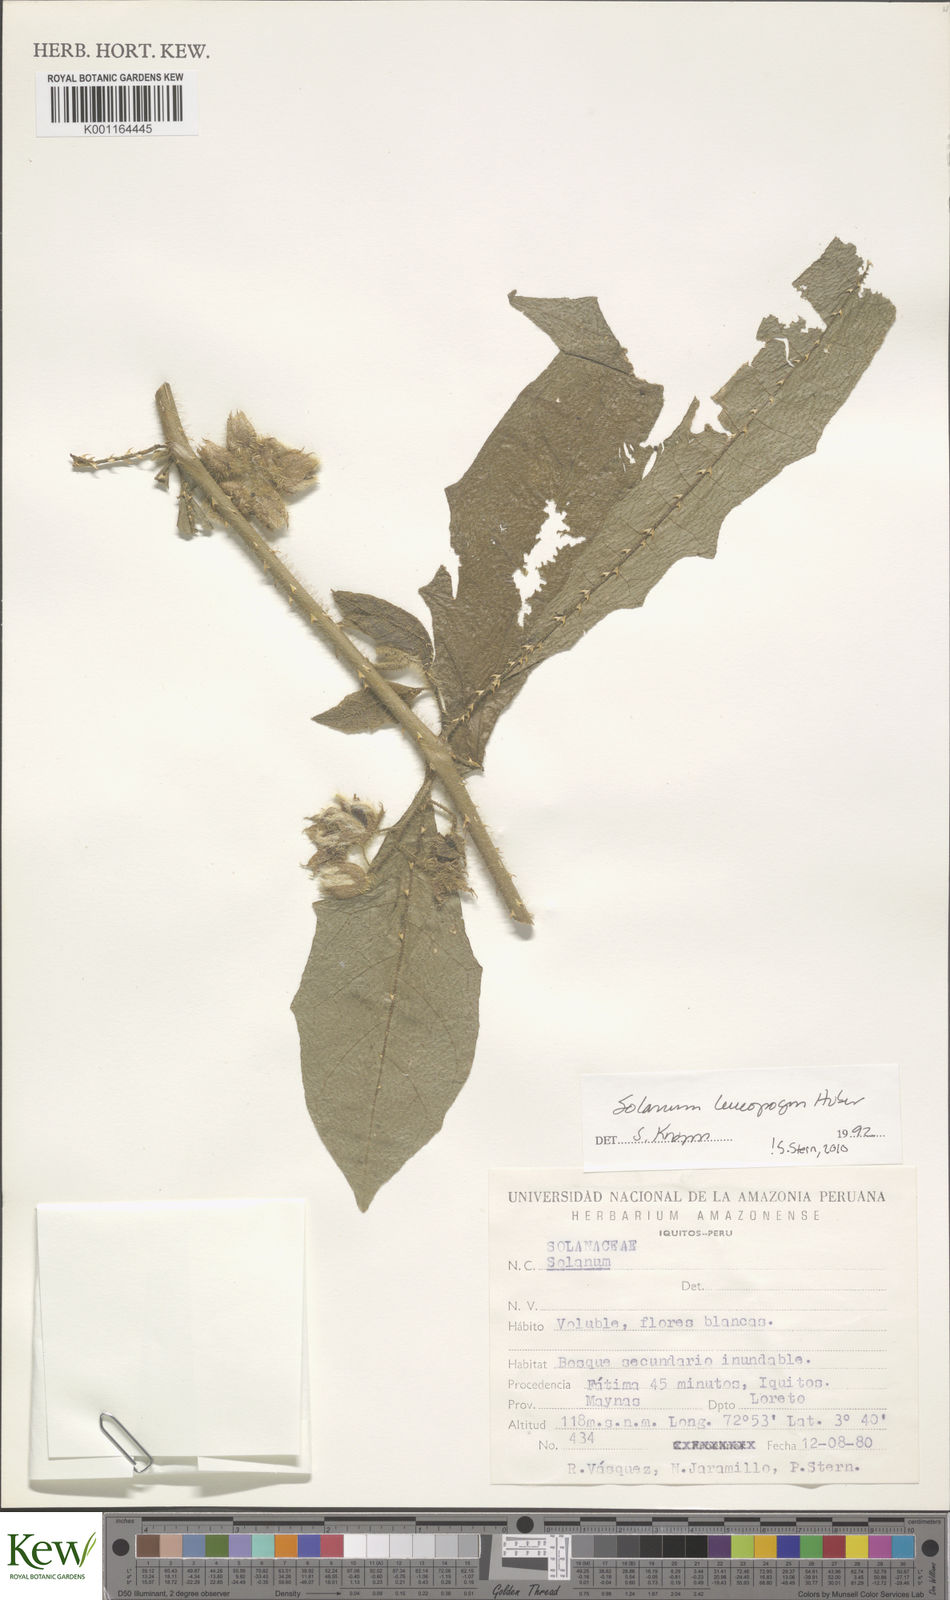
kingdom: Plantae
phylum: Tracheophyta
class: Magnoliopsida
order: Solanales
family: Solanaceae
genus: Solanum
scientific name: Solanum leucopogon
